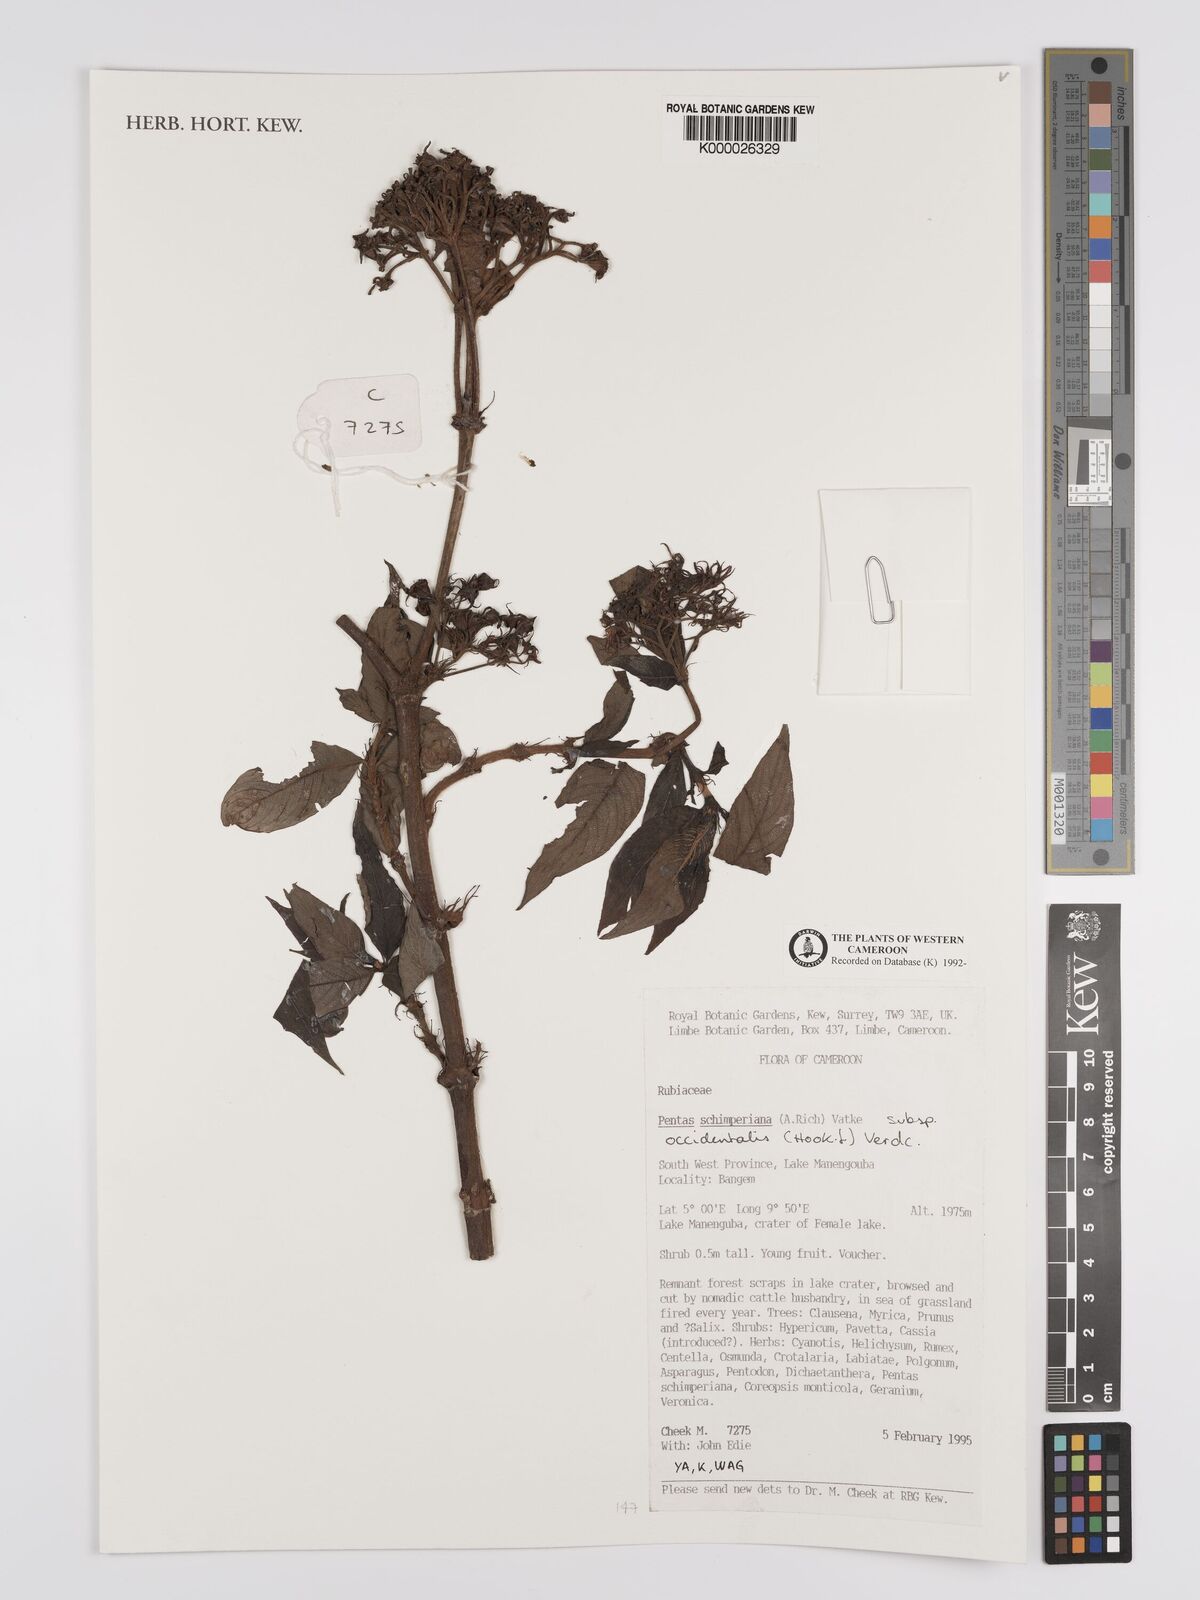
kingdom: Plantae
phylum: Tracheophyta
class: Magnoliopsida
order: Gentianales
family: Rubiaceae
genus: Phyllopentas
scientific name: Phyllopentas schimperi
